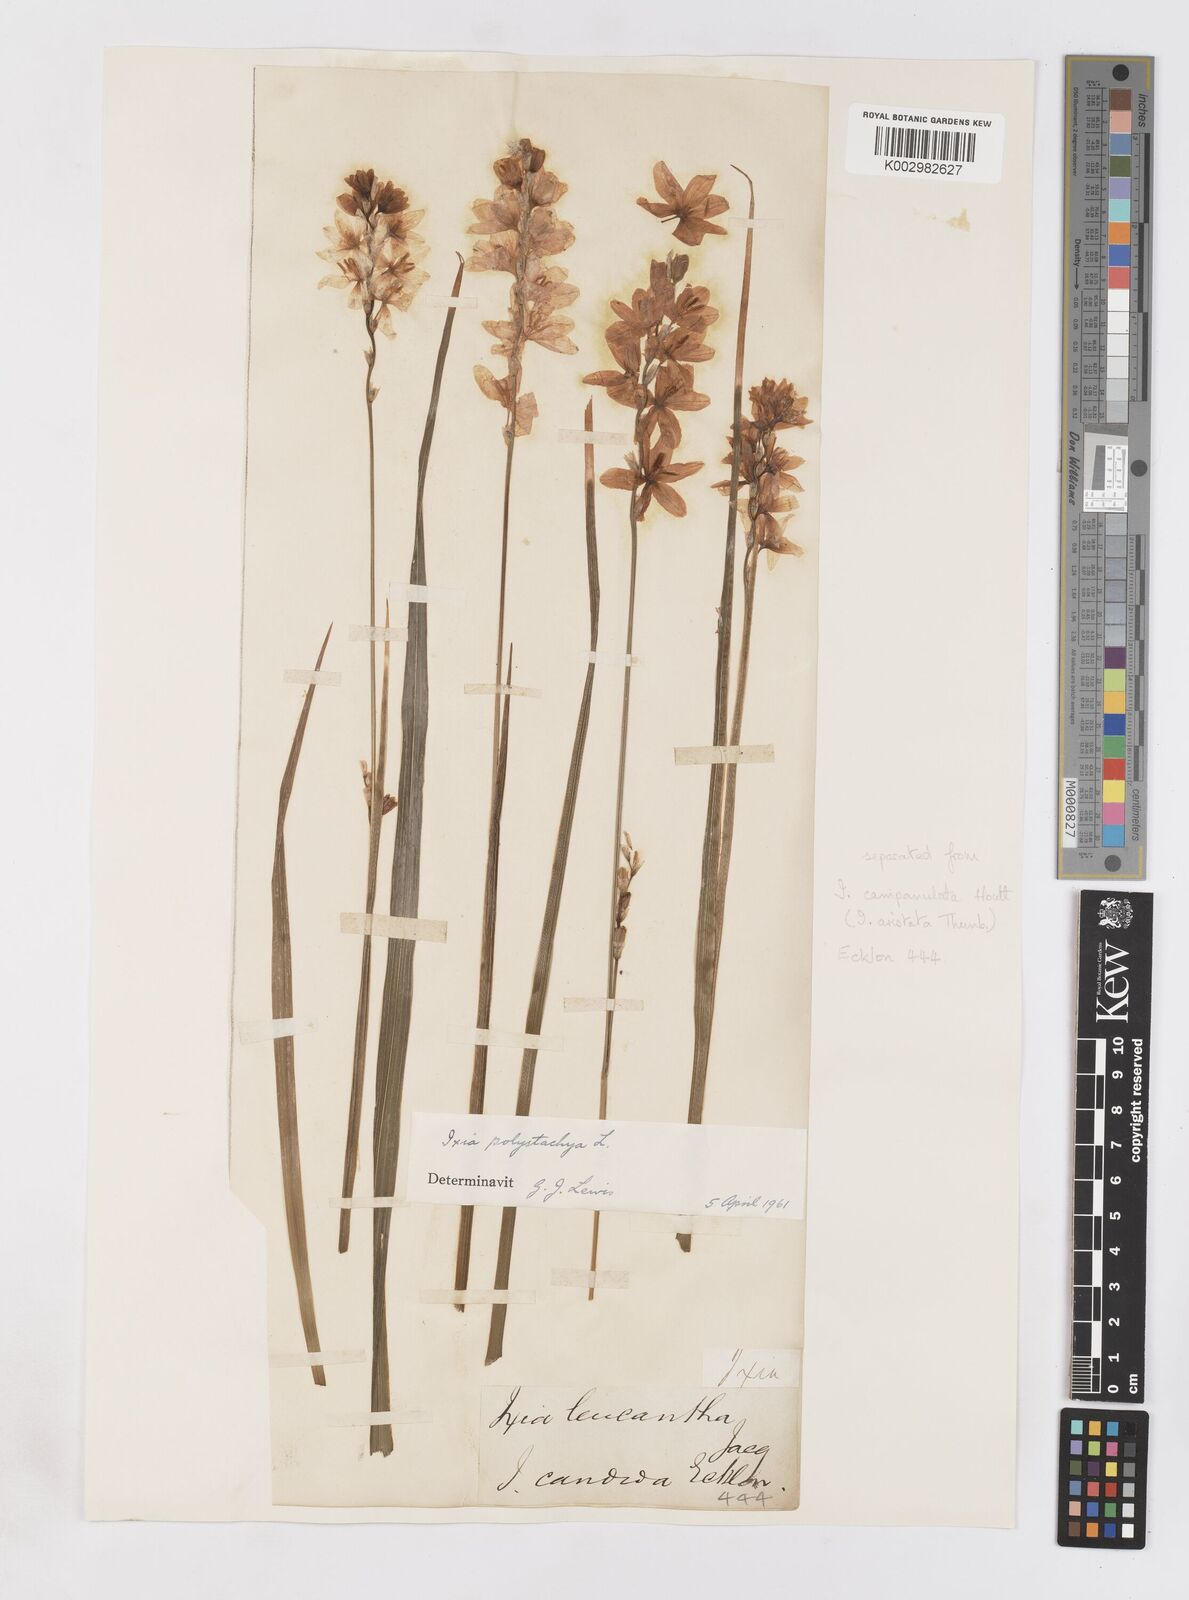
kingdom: Plantae
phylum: Tracheophyta
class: Liliopsida
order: Asparagales
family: Iridaceae
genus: Ixia
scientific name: Ixia polystachya
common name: White-and-yellow-flower cornlily
